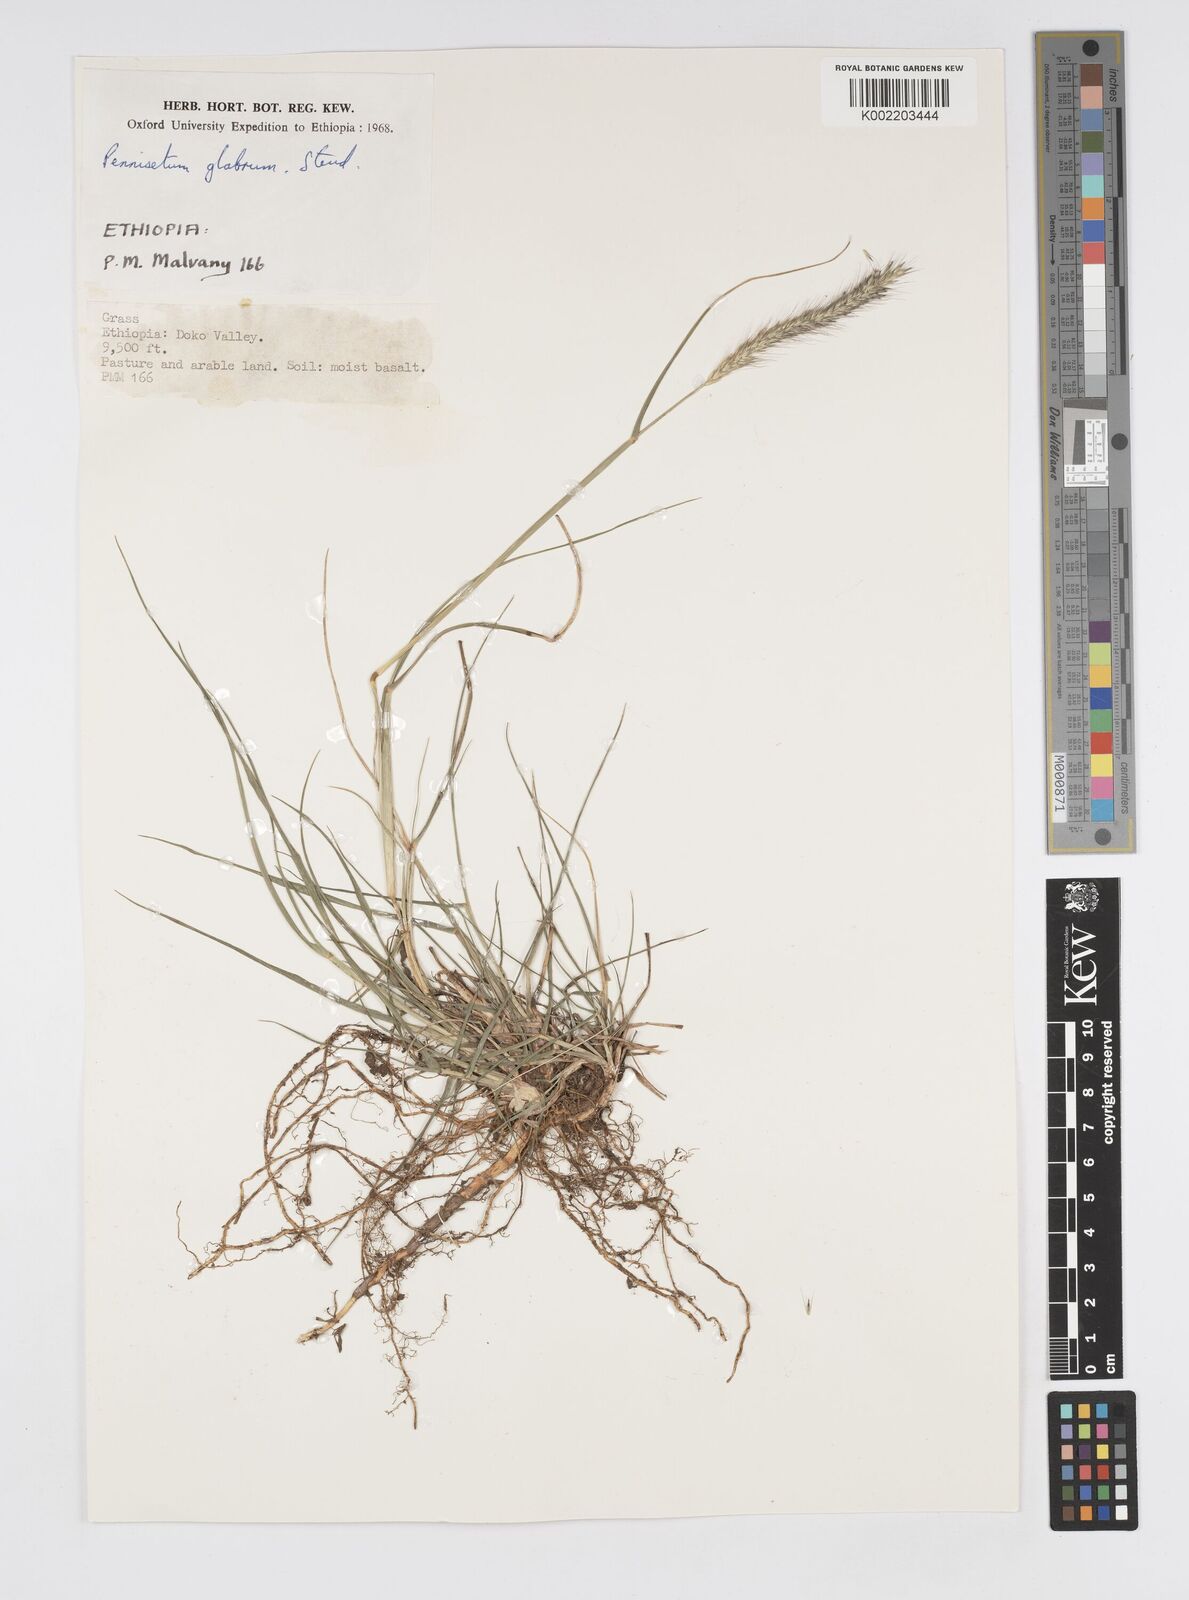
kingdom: Plantae
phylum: Tracheophyta
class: Liliopsida
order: Poales
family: Poaceae
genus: Cenchrus
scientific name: Cenchrus geniculatus
